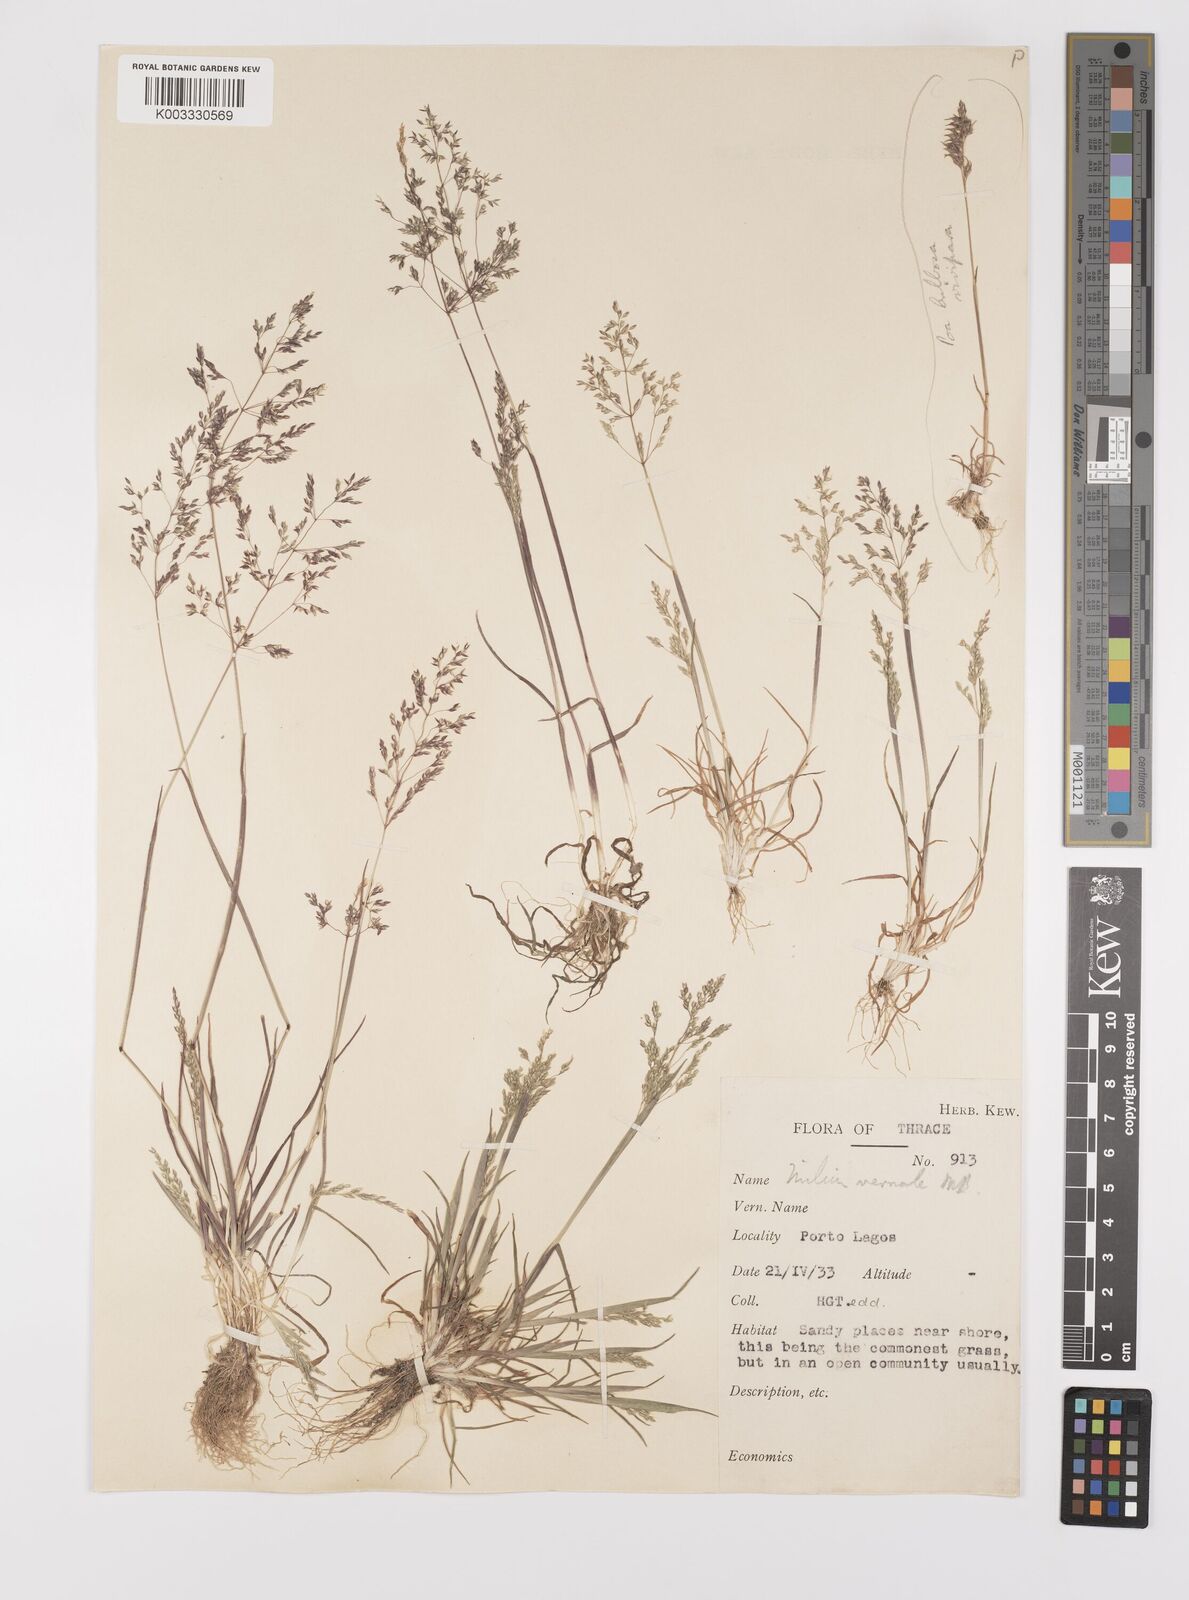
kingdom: Plantae
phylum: Tracheophyta
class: Liliopsida
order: Poales
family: Poaceae
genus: Milium
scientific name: Milium vernale
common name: Early millet
